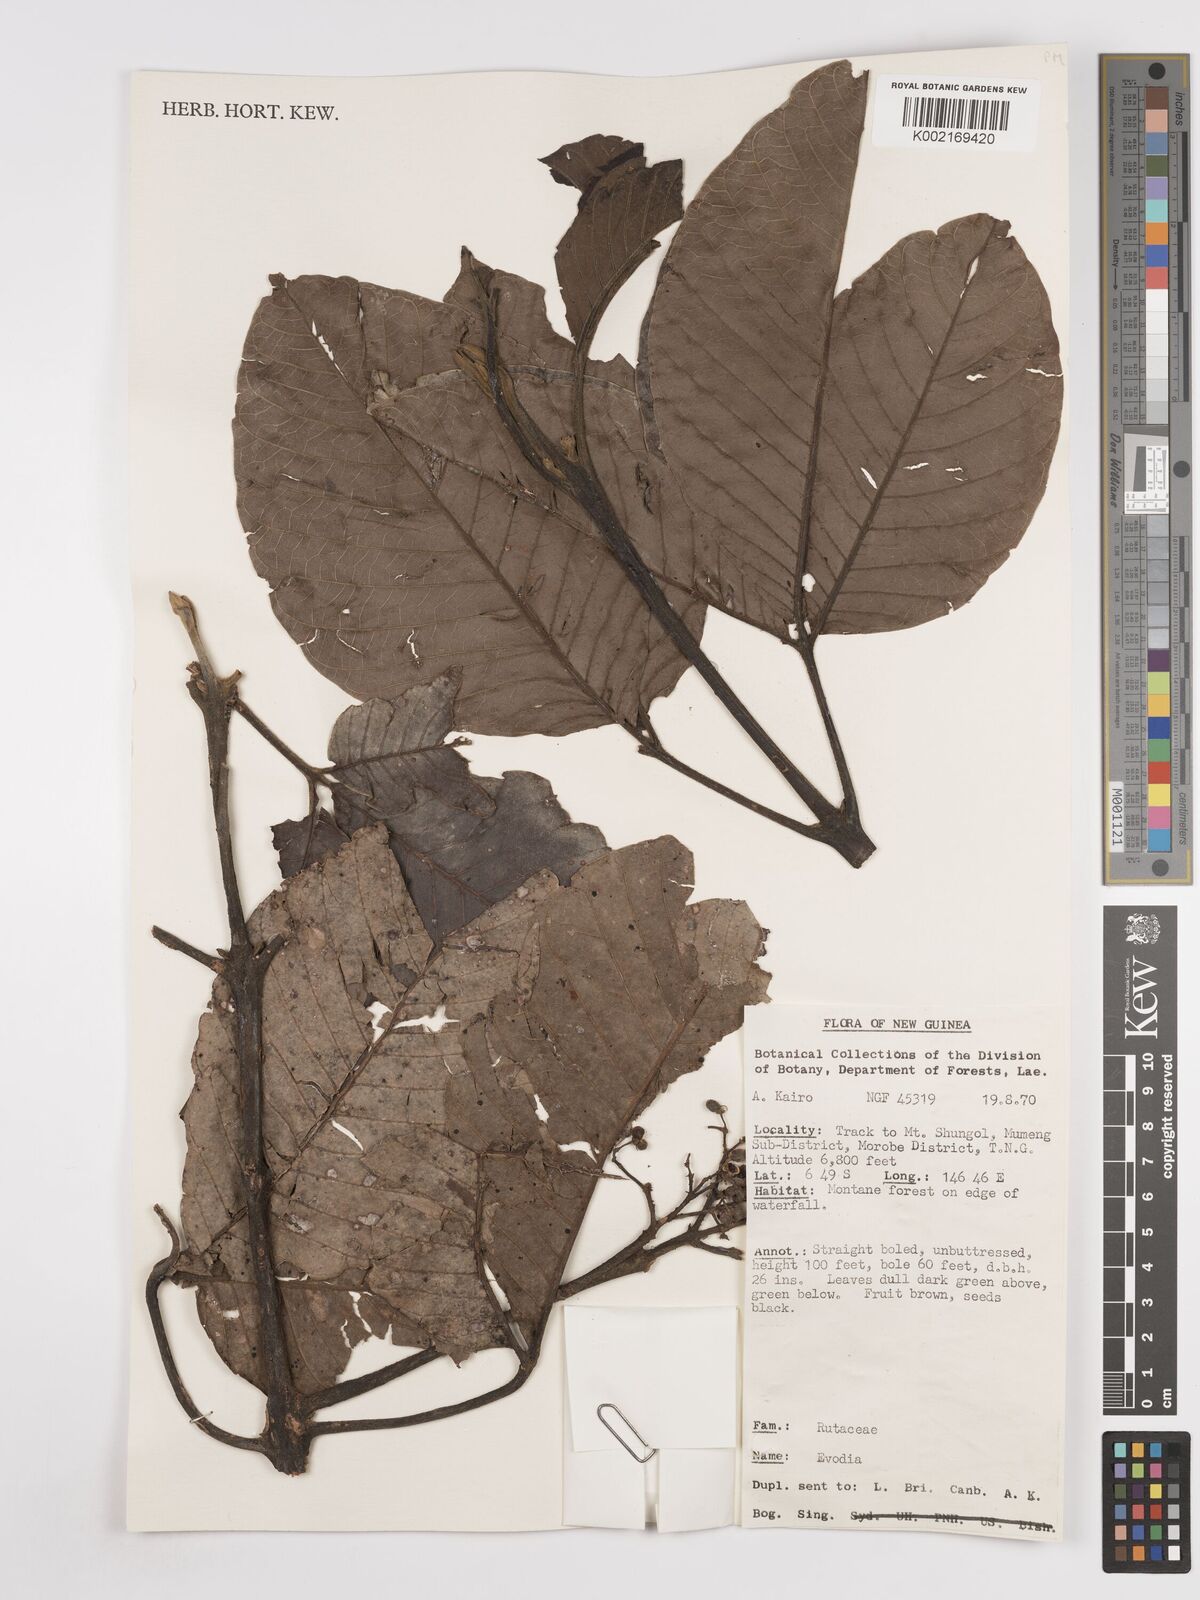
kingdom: Plantae
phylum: Tracheophyta
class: Magnoliopsida
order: Sapindales
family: Rutaceae
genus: Euodia
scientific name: Euodia
